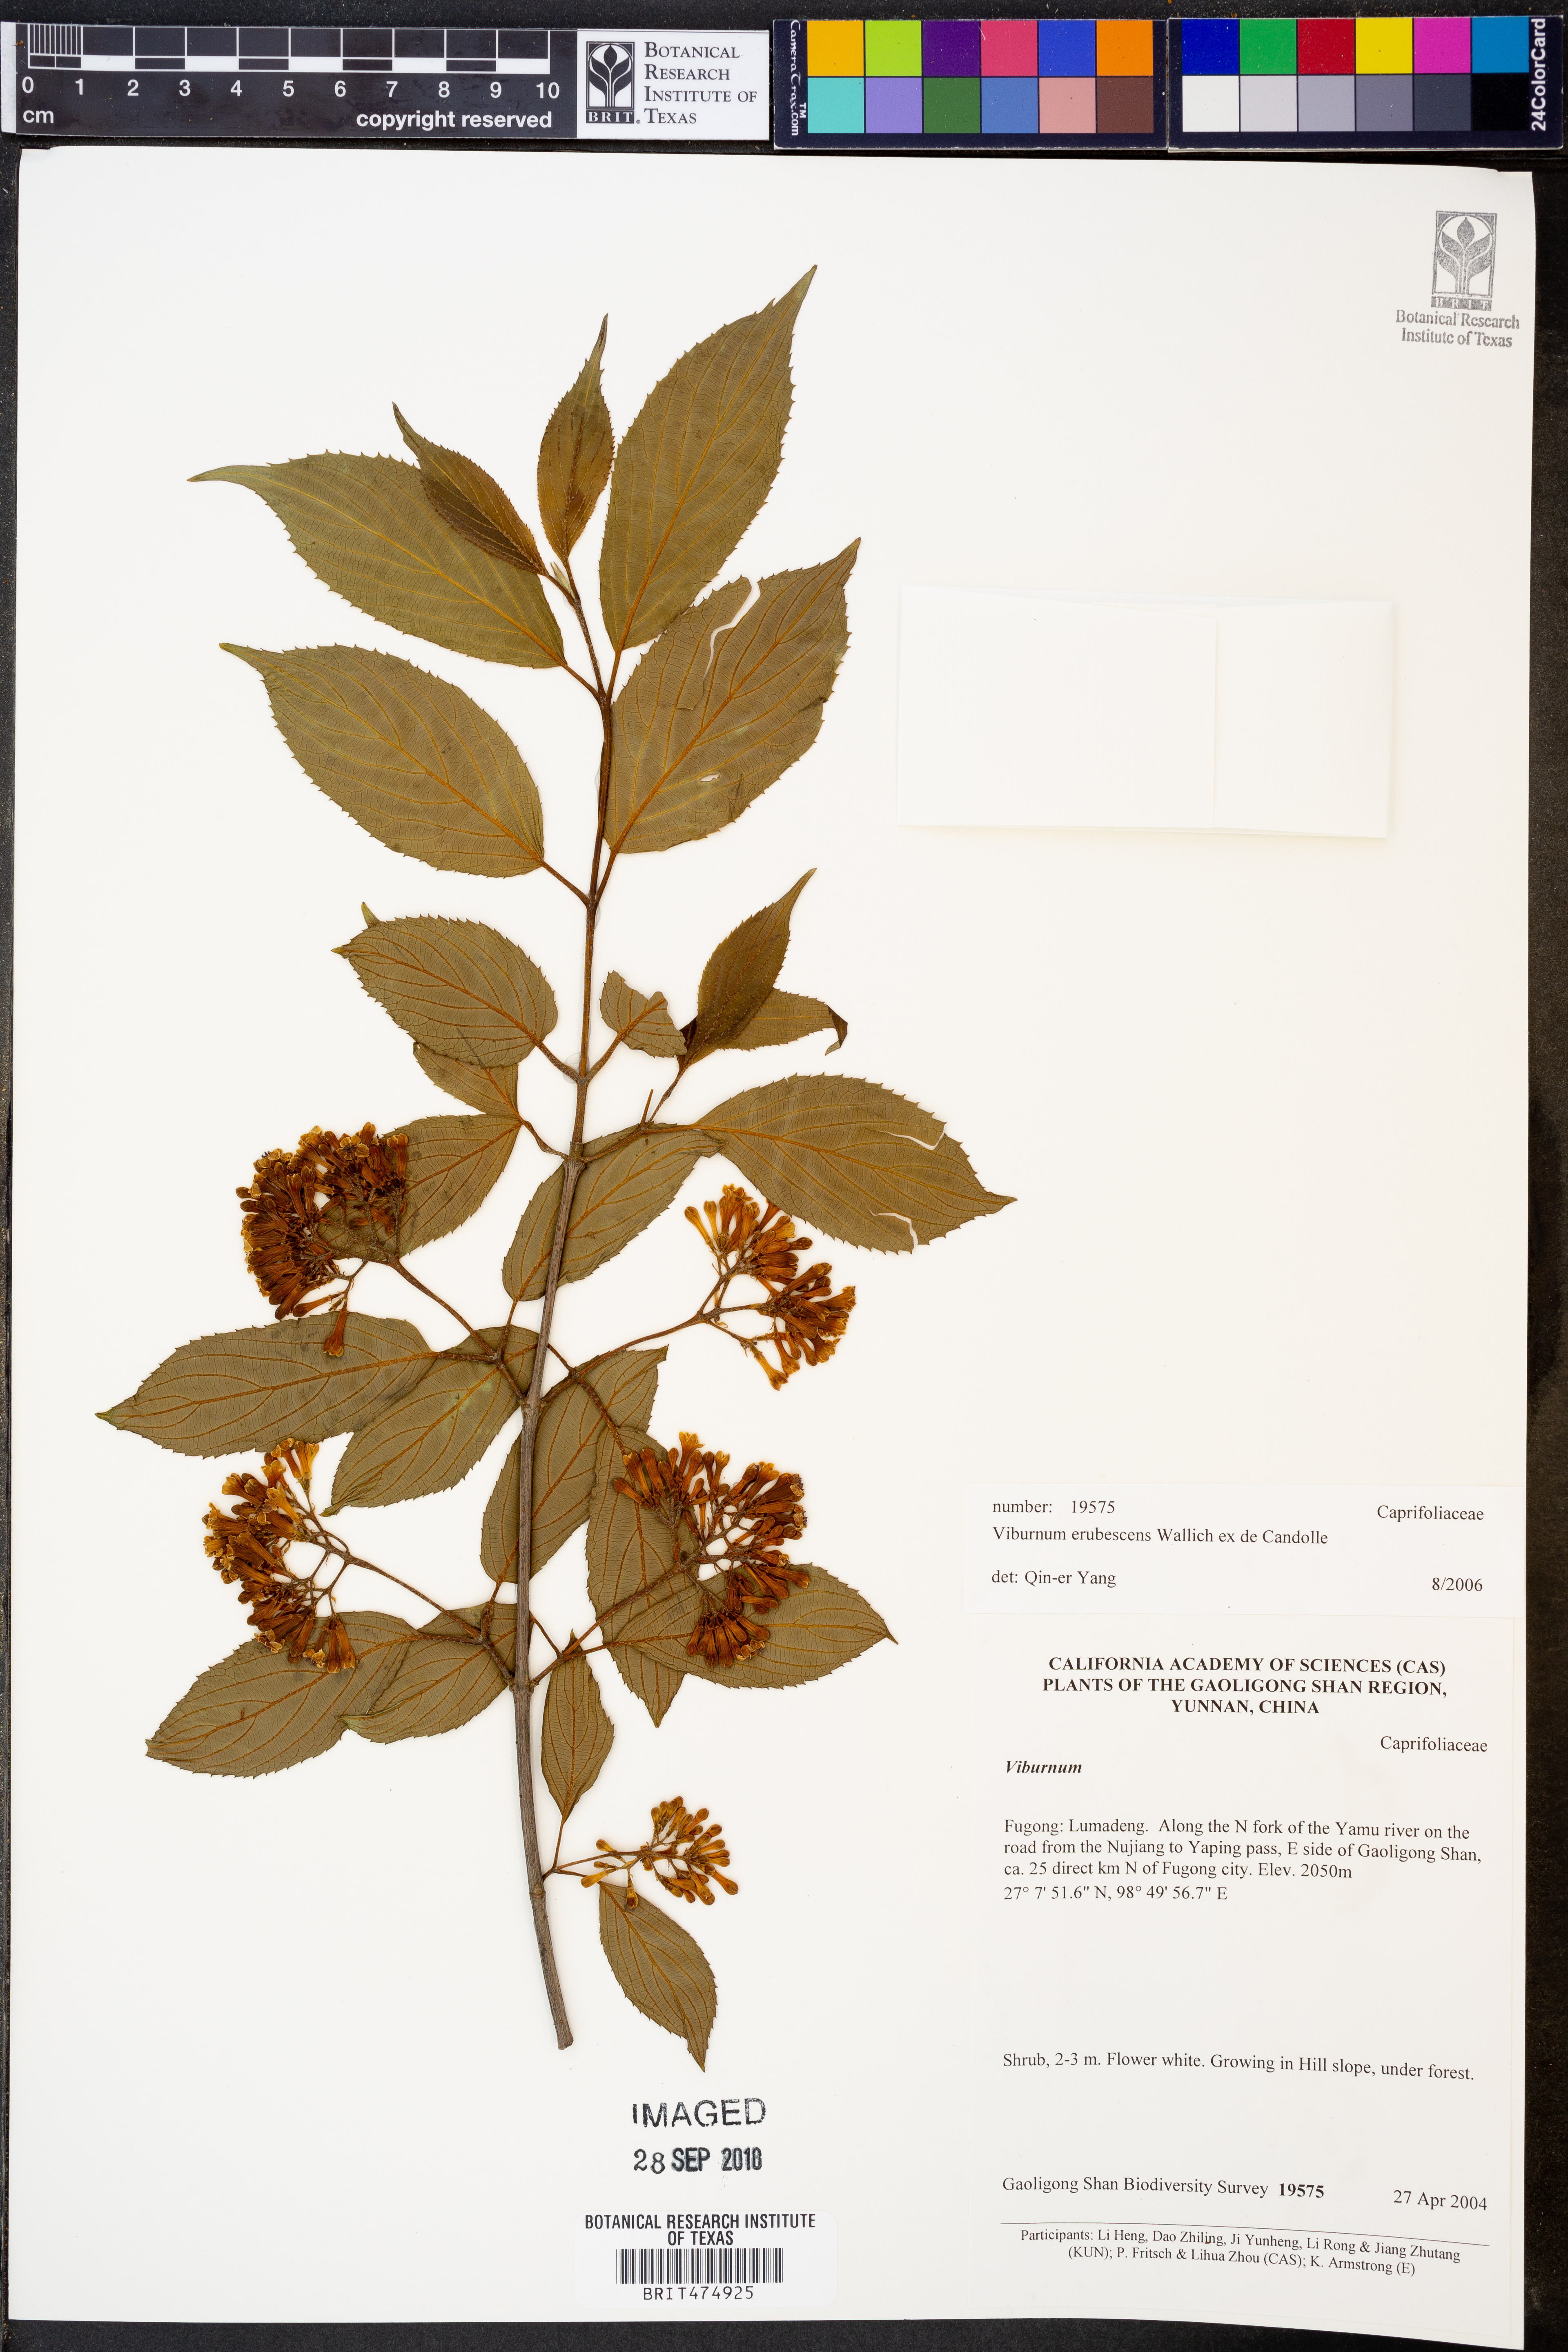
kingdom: Plantae
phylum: Tracheophyta
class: Magnoliopsida
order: Dipsacales
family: Viburnaceae
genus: Viburnum
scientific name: Viburnum erubescens
